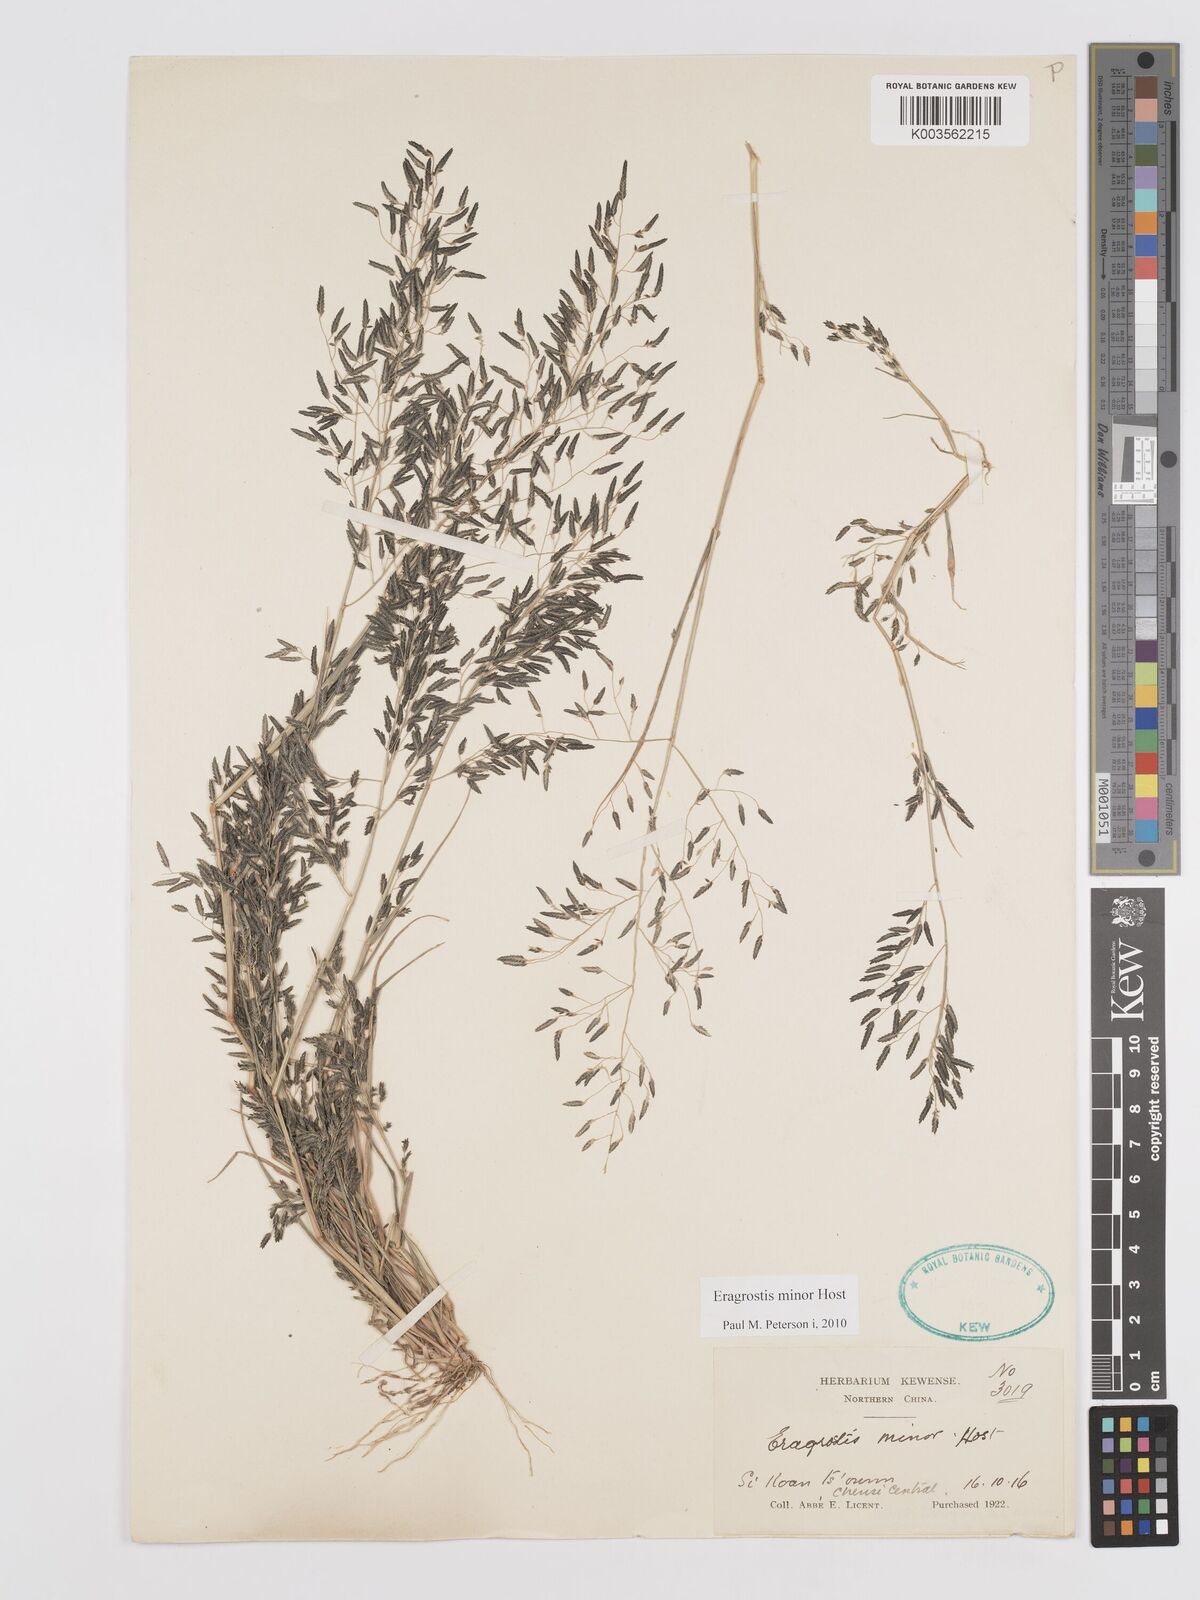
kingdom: Plantae
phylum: Tracheophyta
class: Liliopsida
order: Poales
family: Poaceae
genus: Eragrostis
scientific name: Eragrostis minor
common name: Small love-grass
